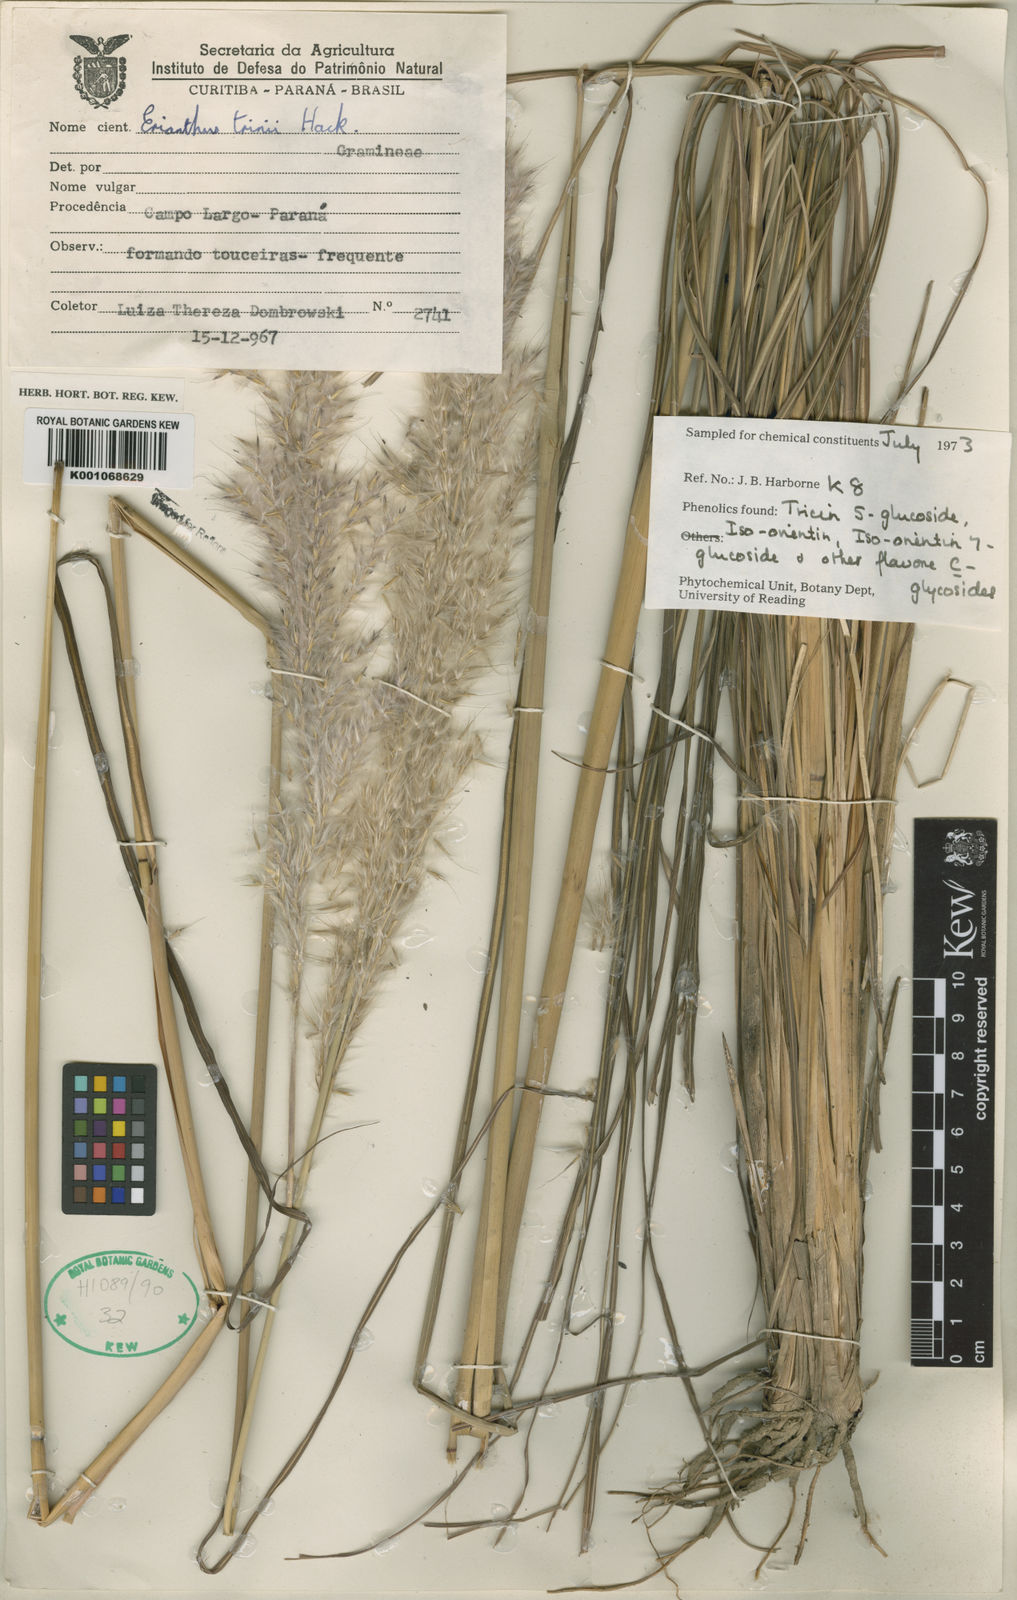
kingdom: Plantae
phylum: Tracheophyta
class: Liliopsida
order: Poales
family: Poaceae
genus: Saccharum
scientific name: Saccharum angustifolium
